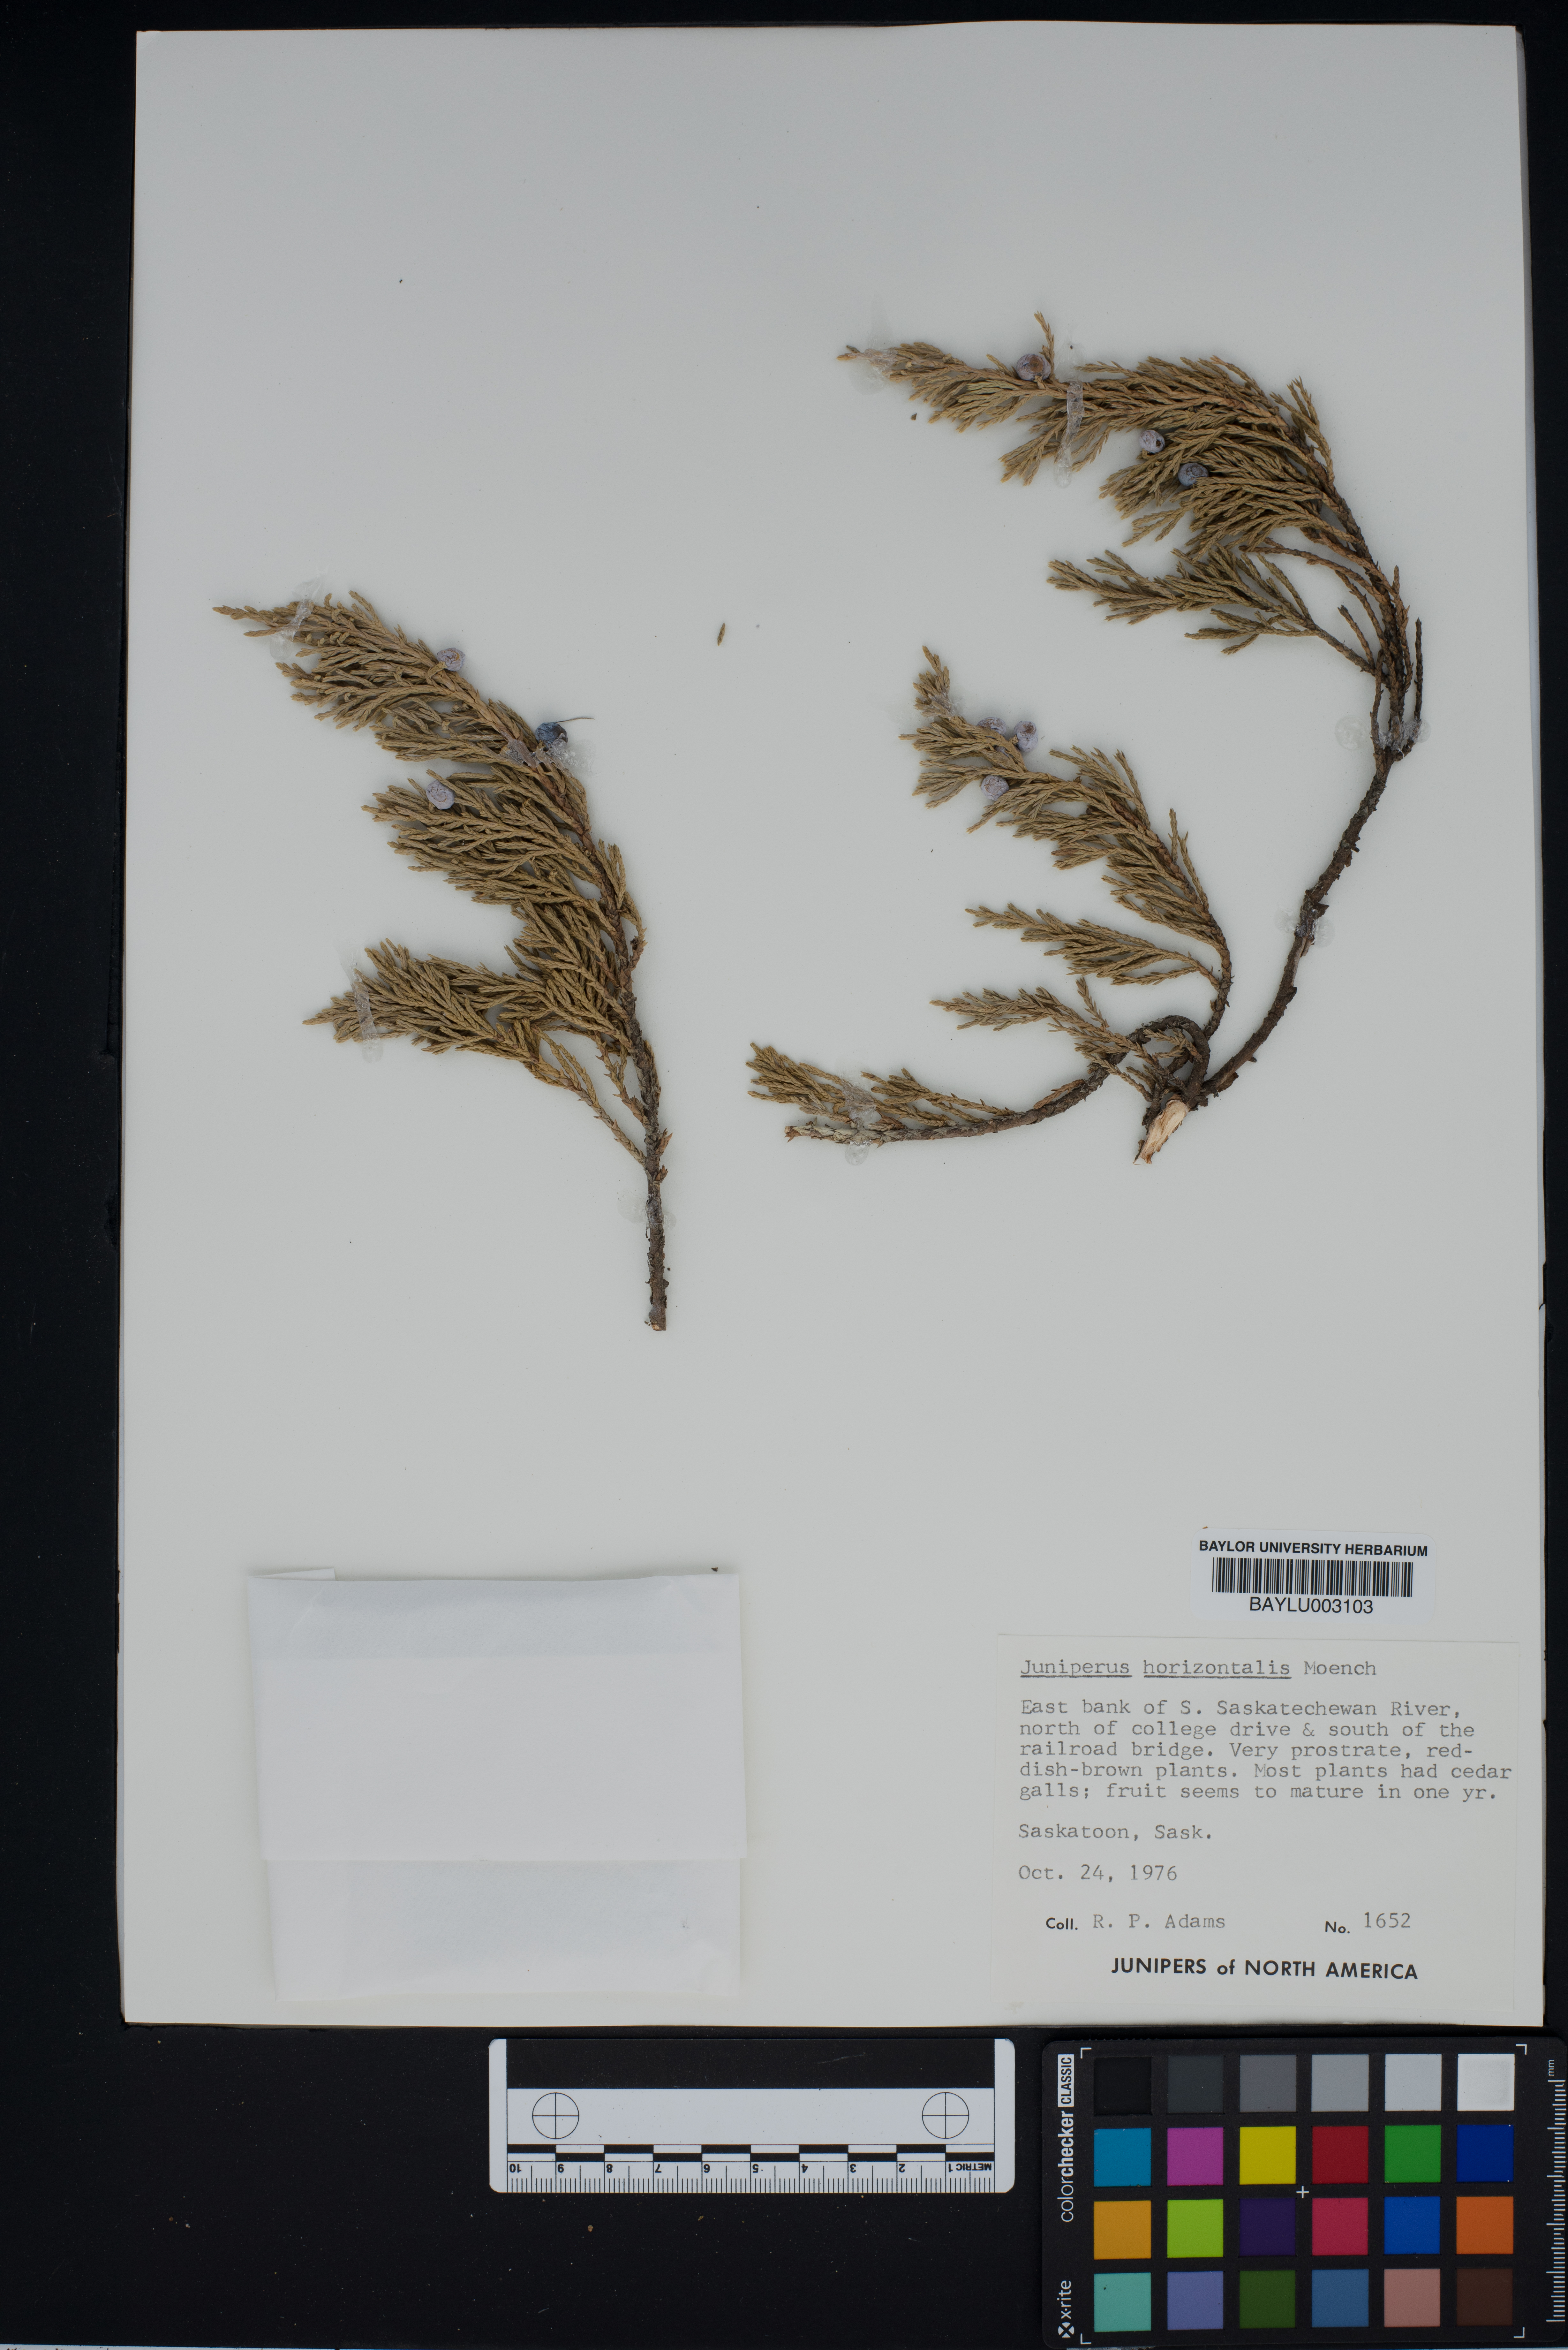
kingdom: Plantae
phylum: Tracheophyta
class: Pinopsida
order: Pinales
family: Cupressaceae
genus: Juniperus
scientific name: Juniperus horizontalis
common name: Creeping juniper
